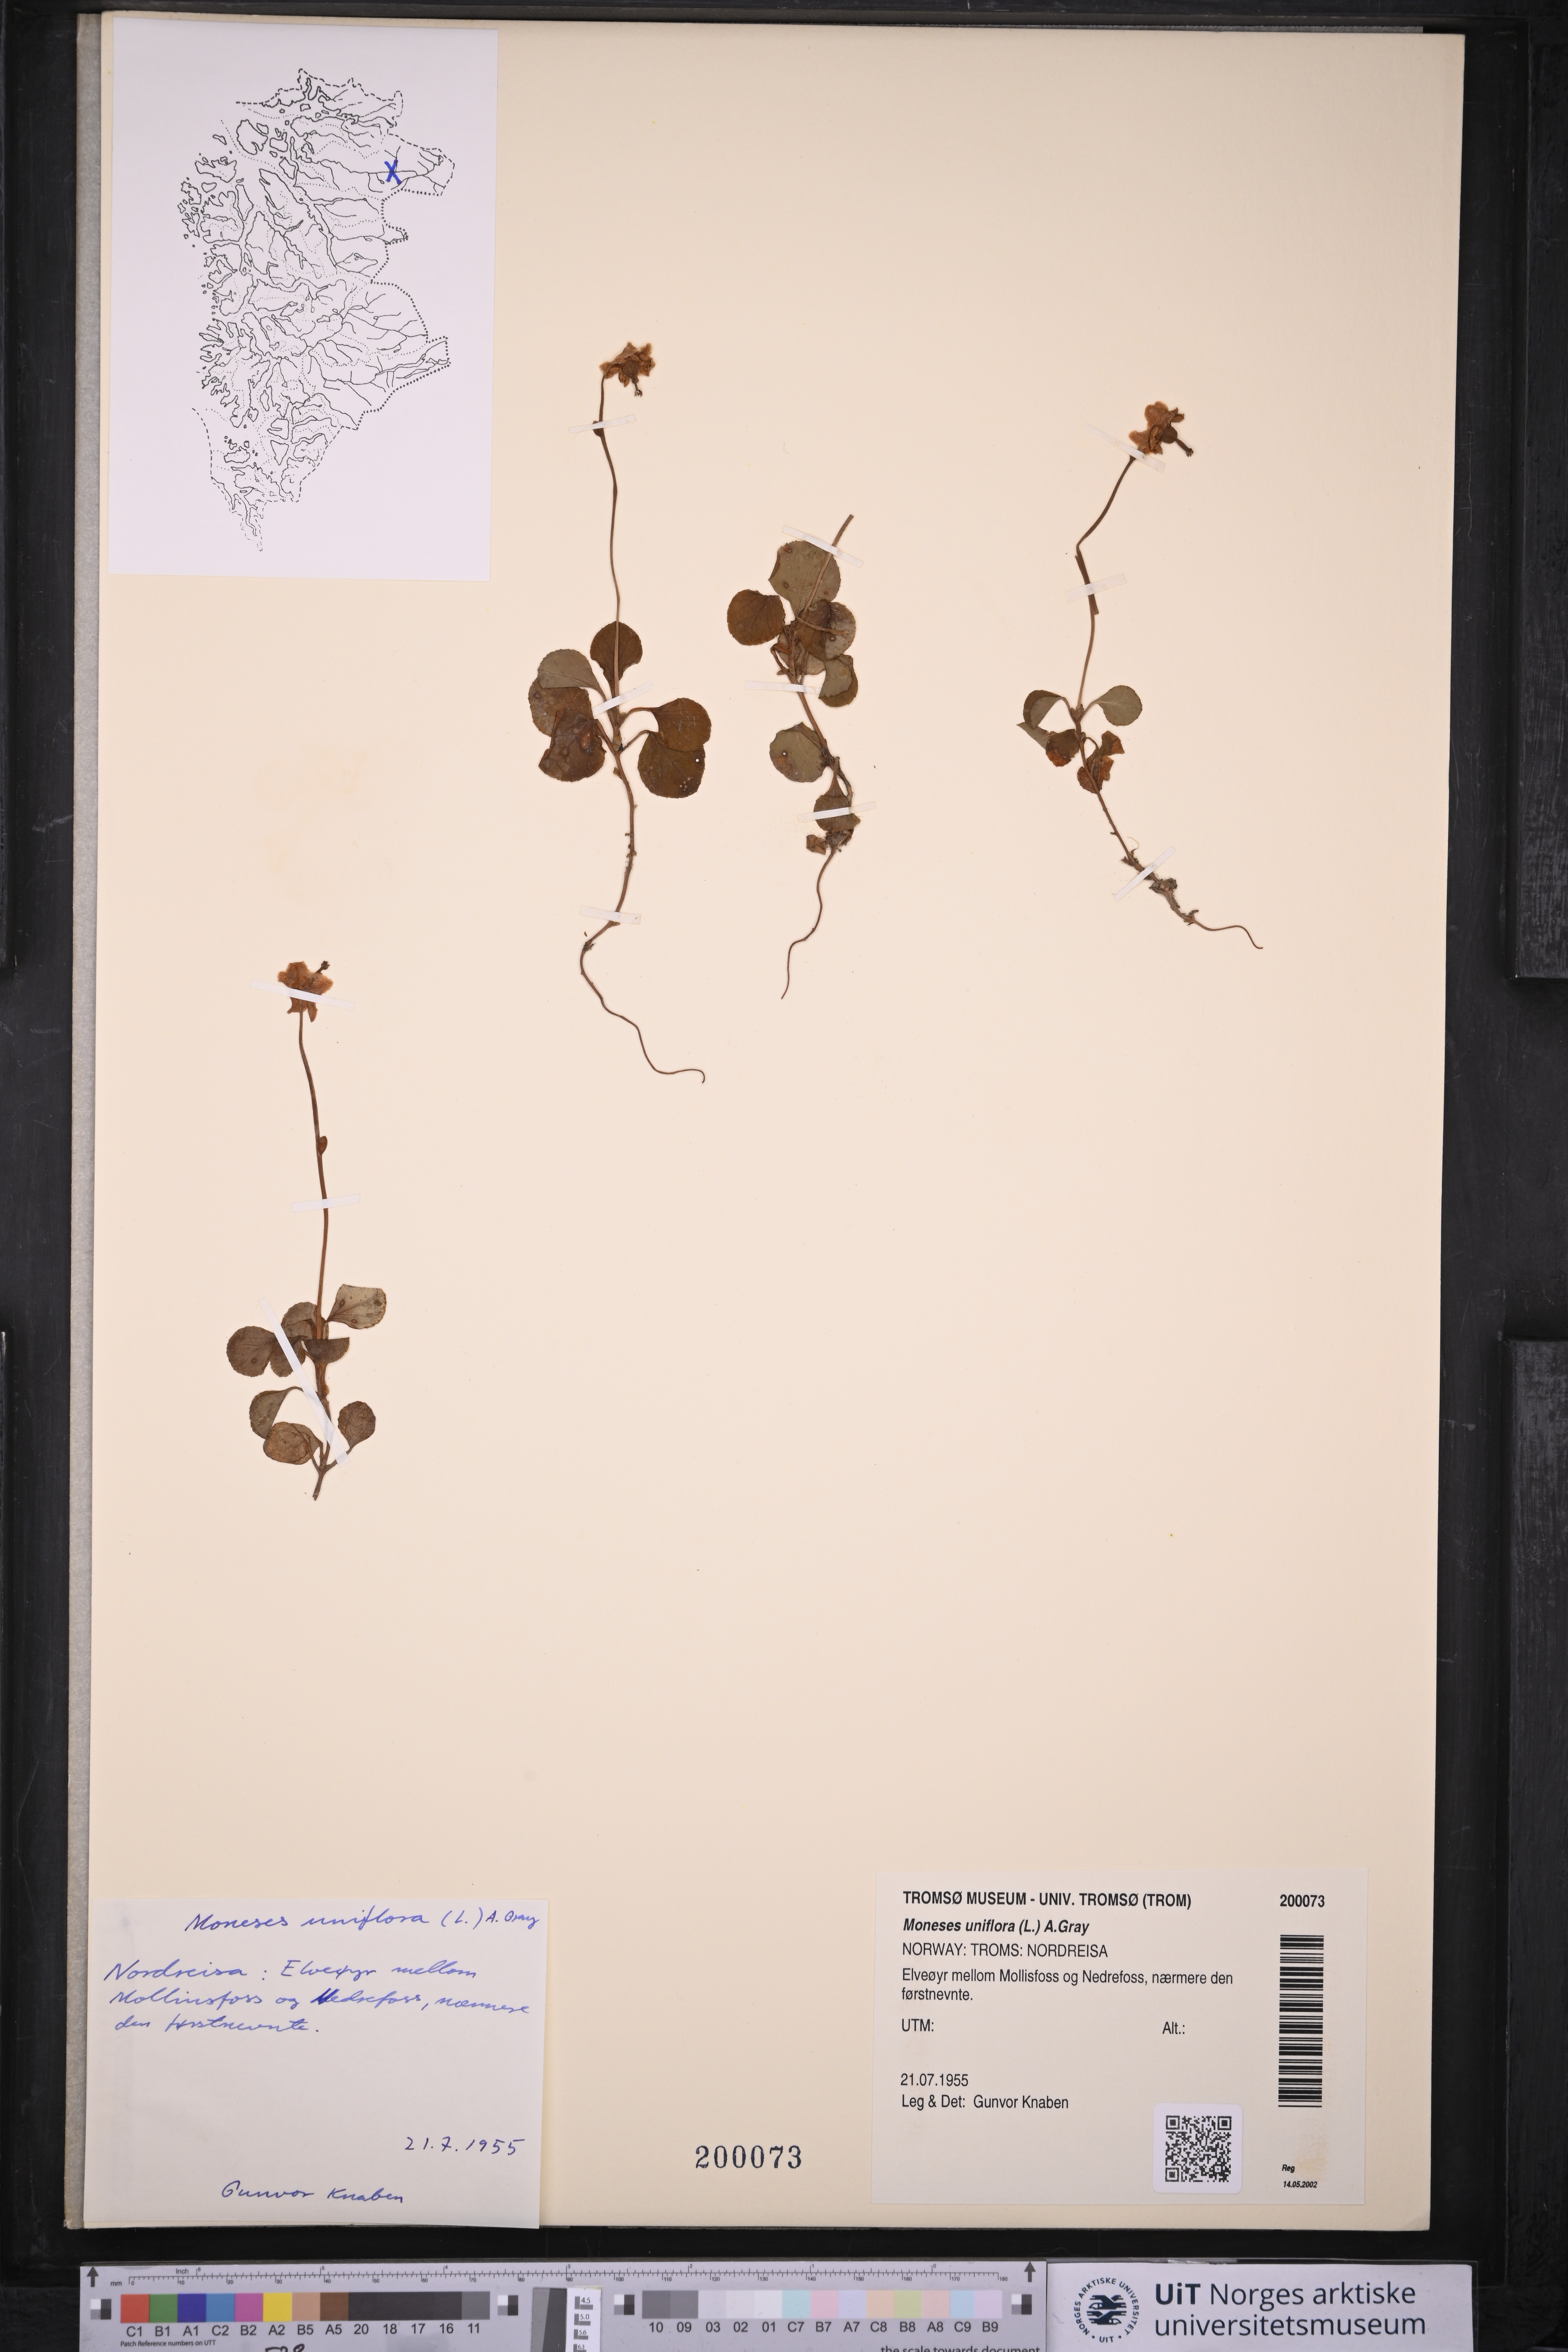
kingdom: Plantae
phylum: Tracheophyta
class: Magnoliopsida
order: Ericales
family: Ericaceae
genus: Moneses
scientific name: Moneses uniflora
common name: One-flowered wintergreen
